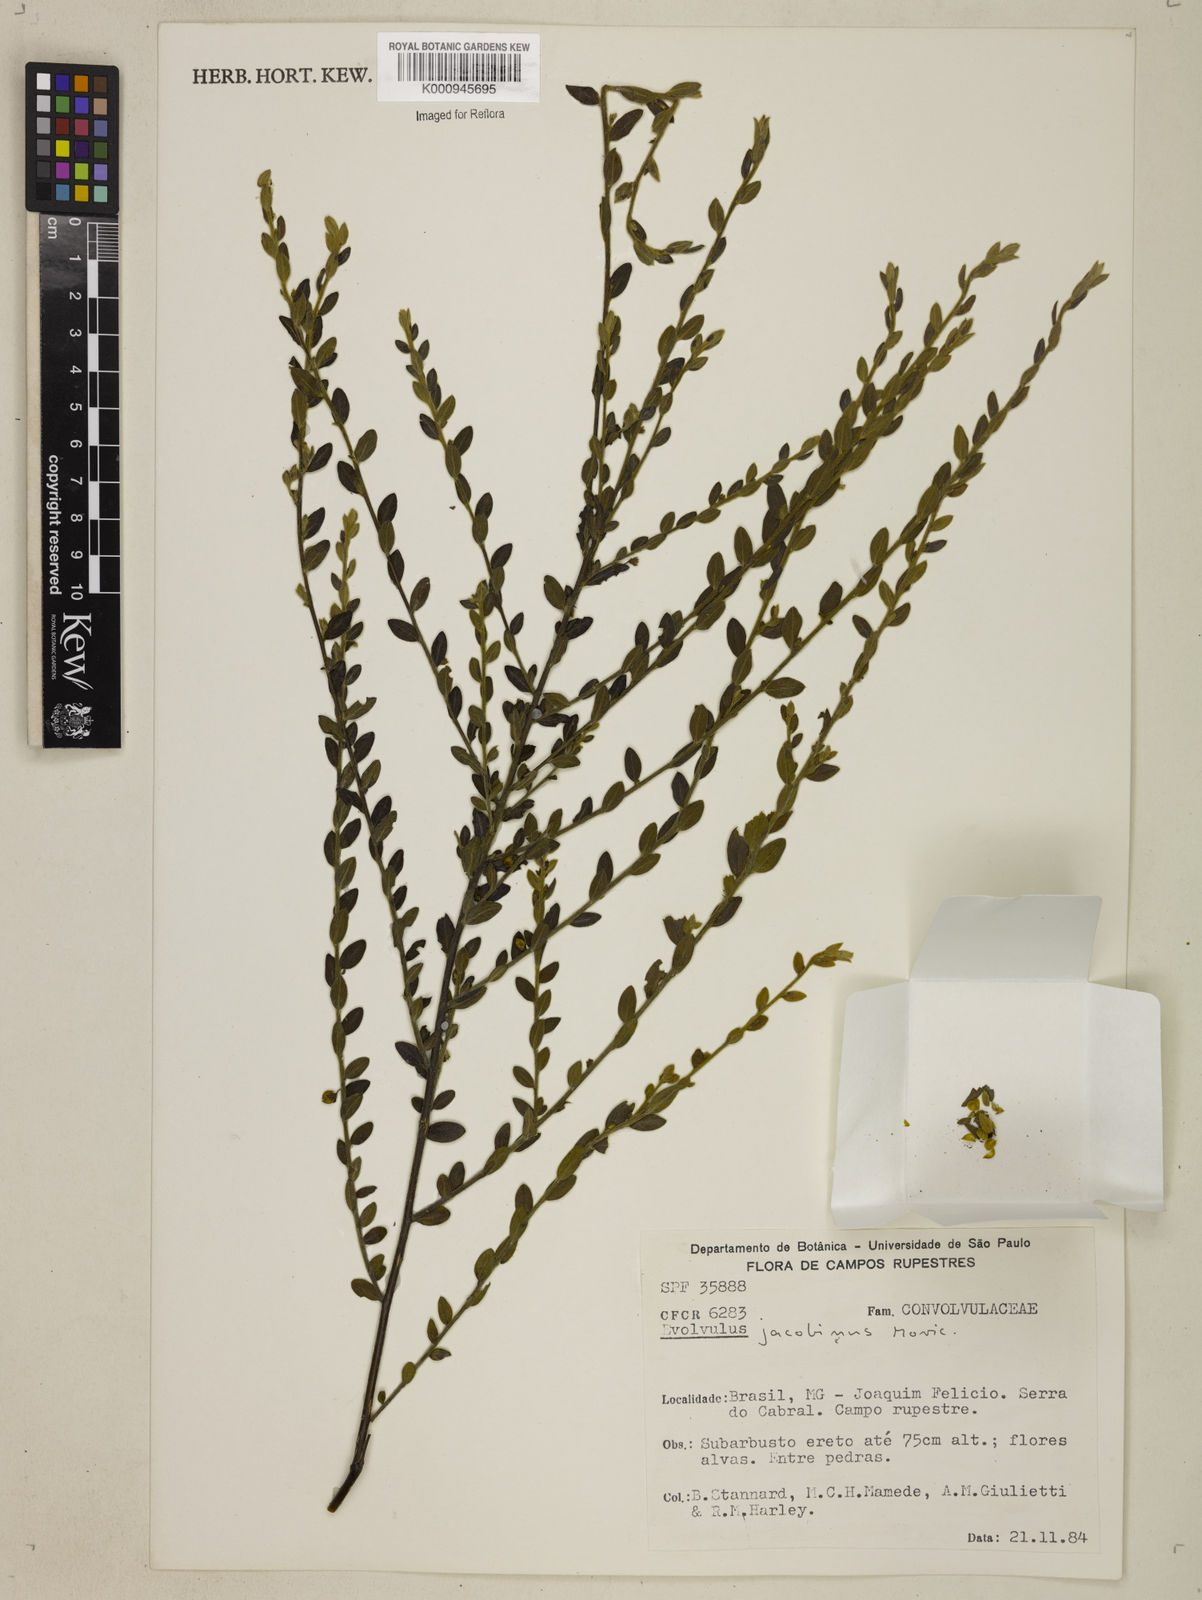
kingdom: Plantae
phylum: Tracheophyta
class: Magnoliopsida
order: Solanales
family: Convolvulaceae
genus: Evolvulus
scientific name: Evolvulus jacobinus
